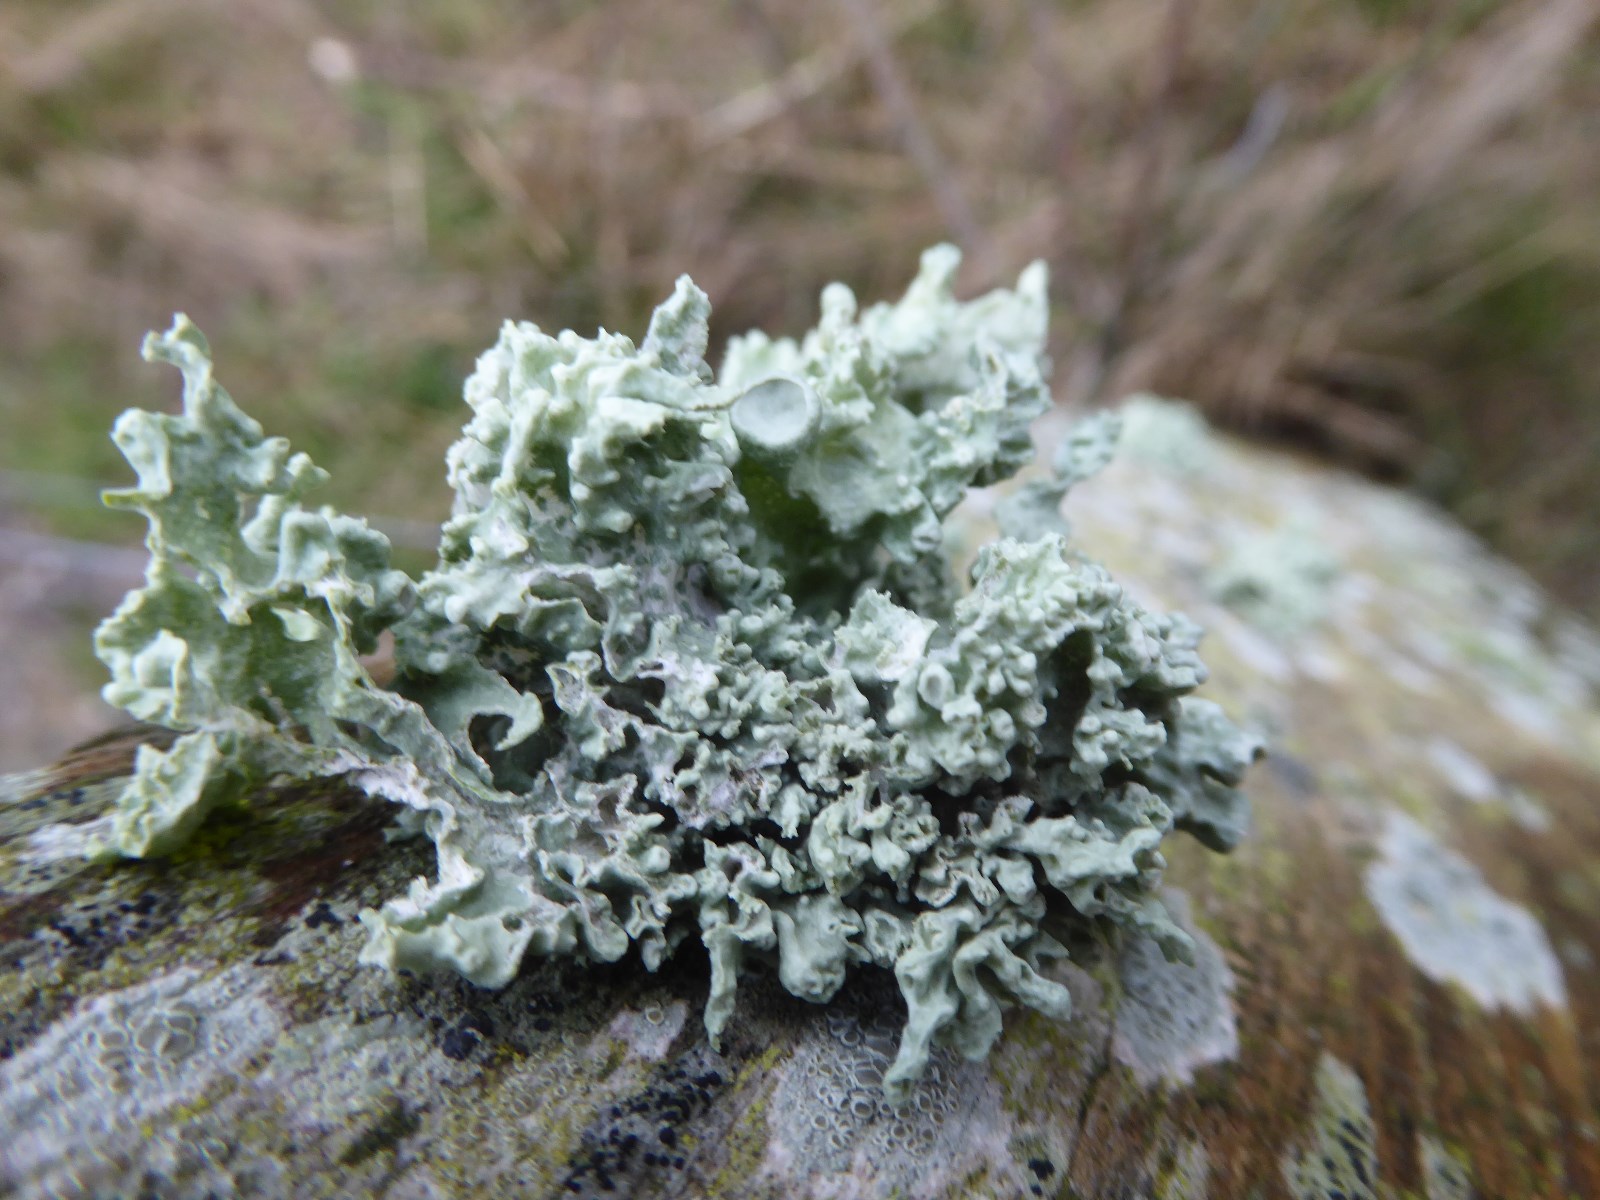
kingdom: Fungi
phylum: Ascomycota
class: Lecanoromycetes
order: Lecanorales
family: Ramalinaceae
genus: Ramalina
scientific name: Ramalina fastigiata
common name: tue-grenlav
